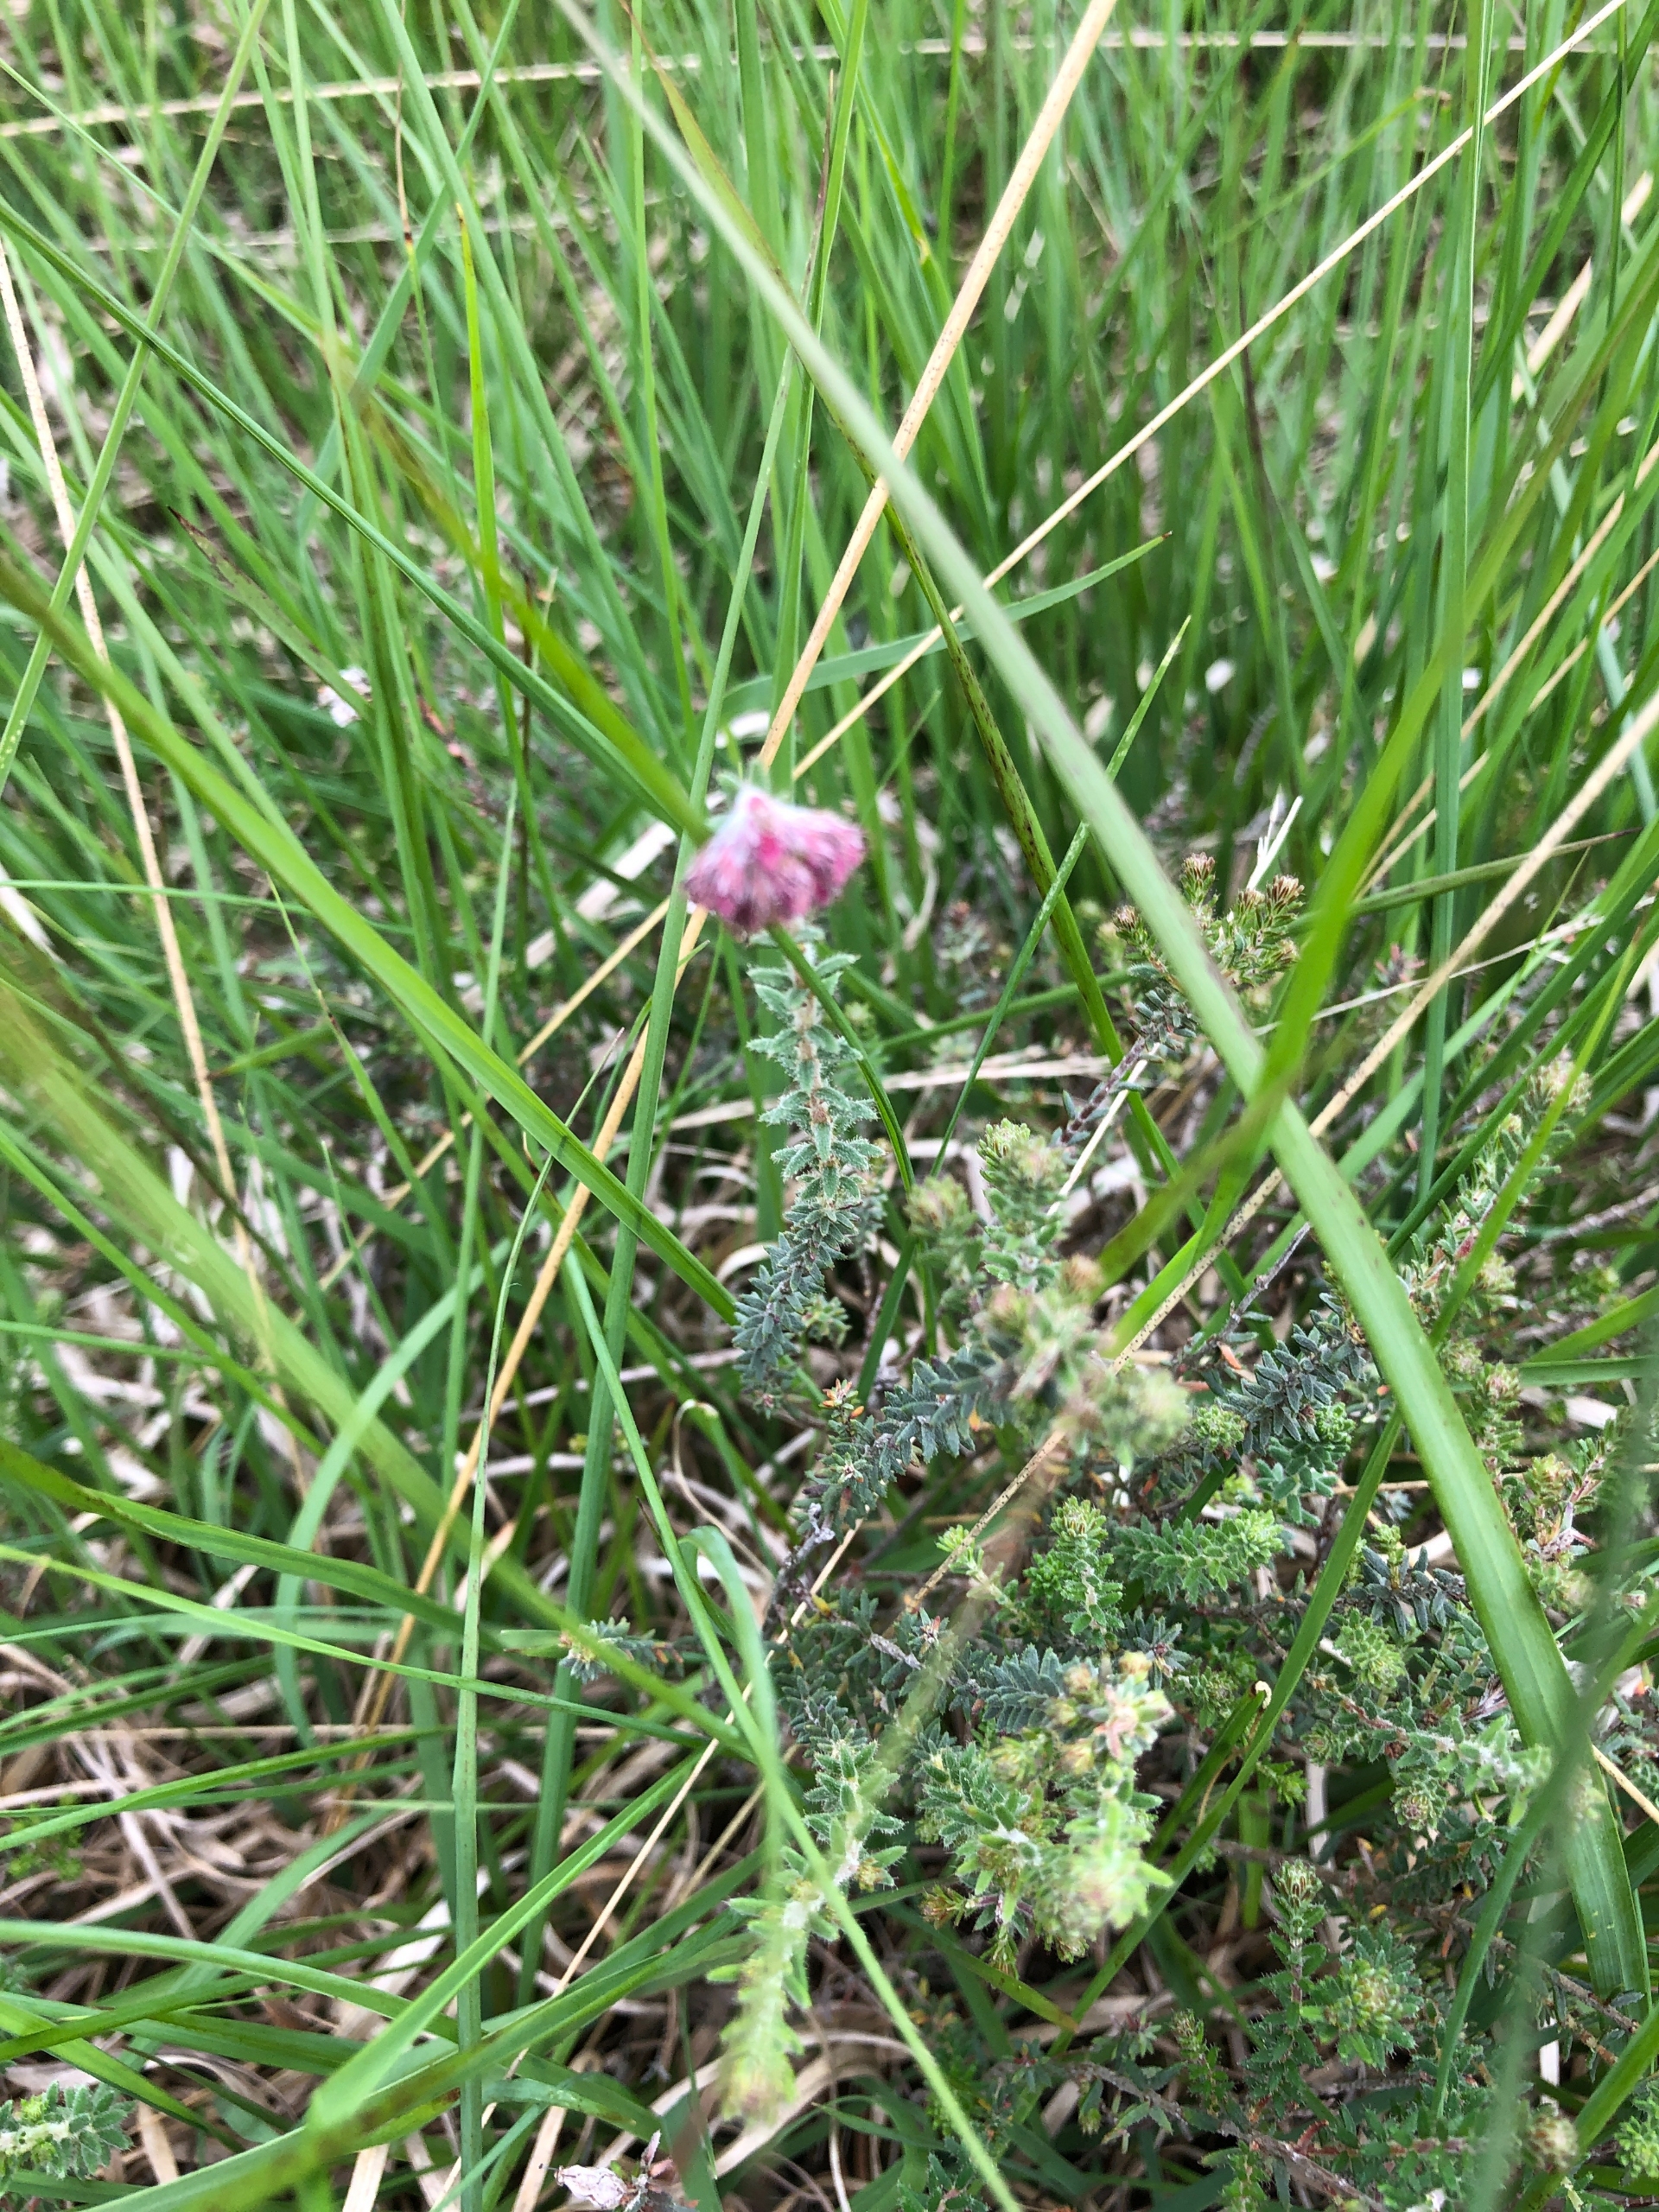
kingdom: Plantae
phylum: Tracheophyta
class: Magnoliopsida
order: Ericales
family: Ericaceae
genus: Erica
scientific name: Erica tetralix
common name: Klokkelyng
